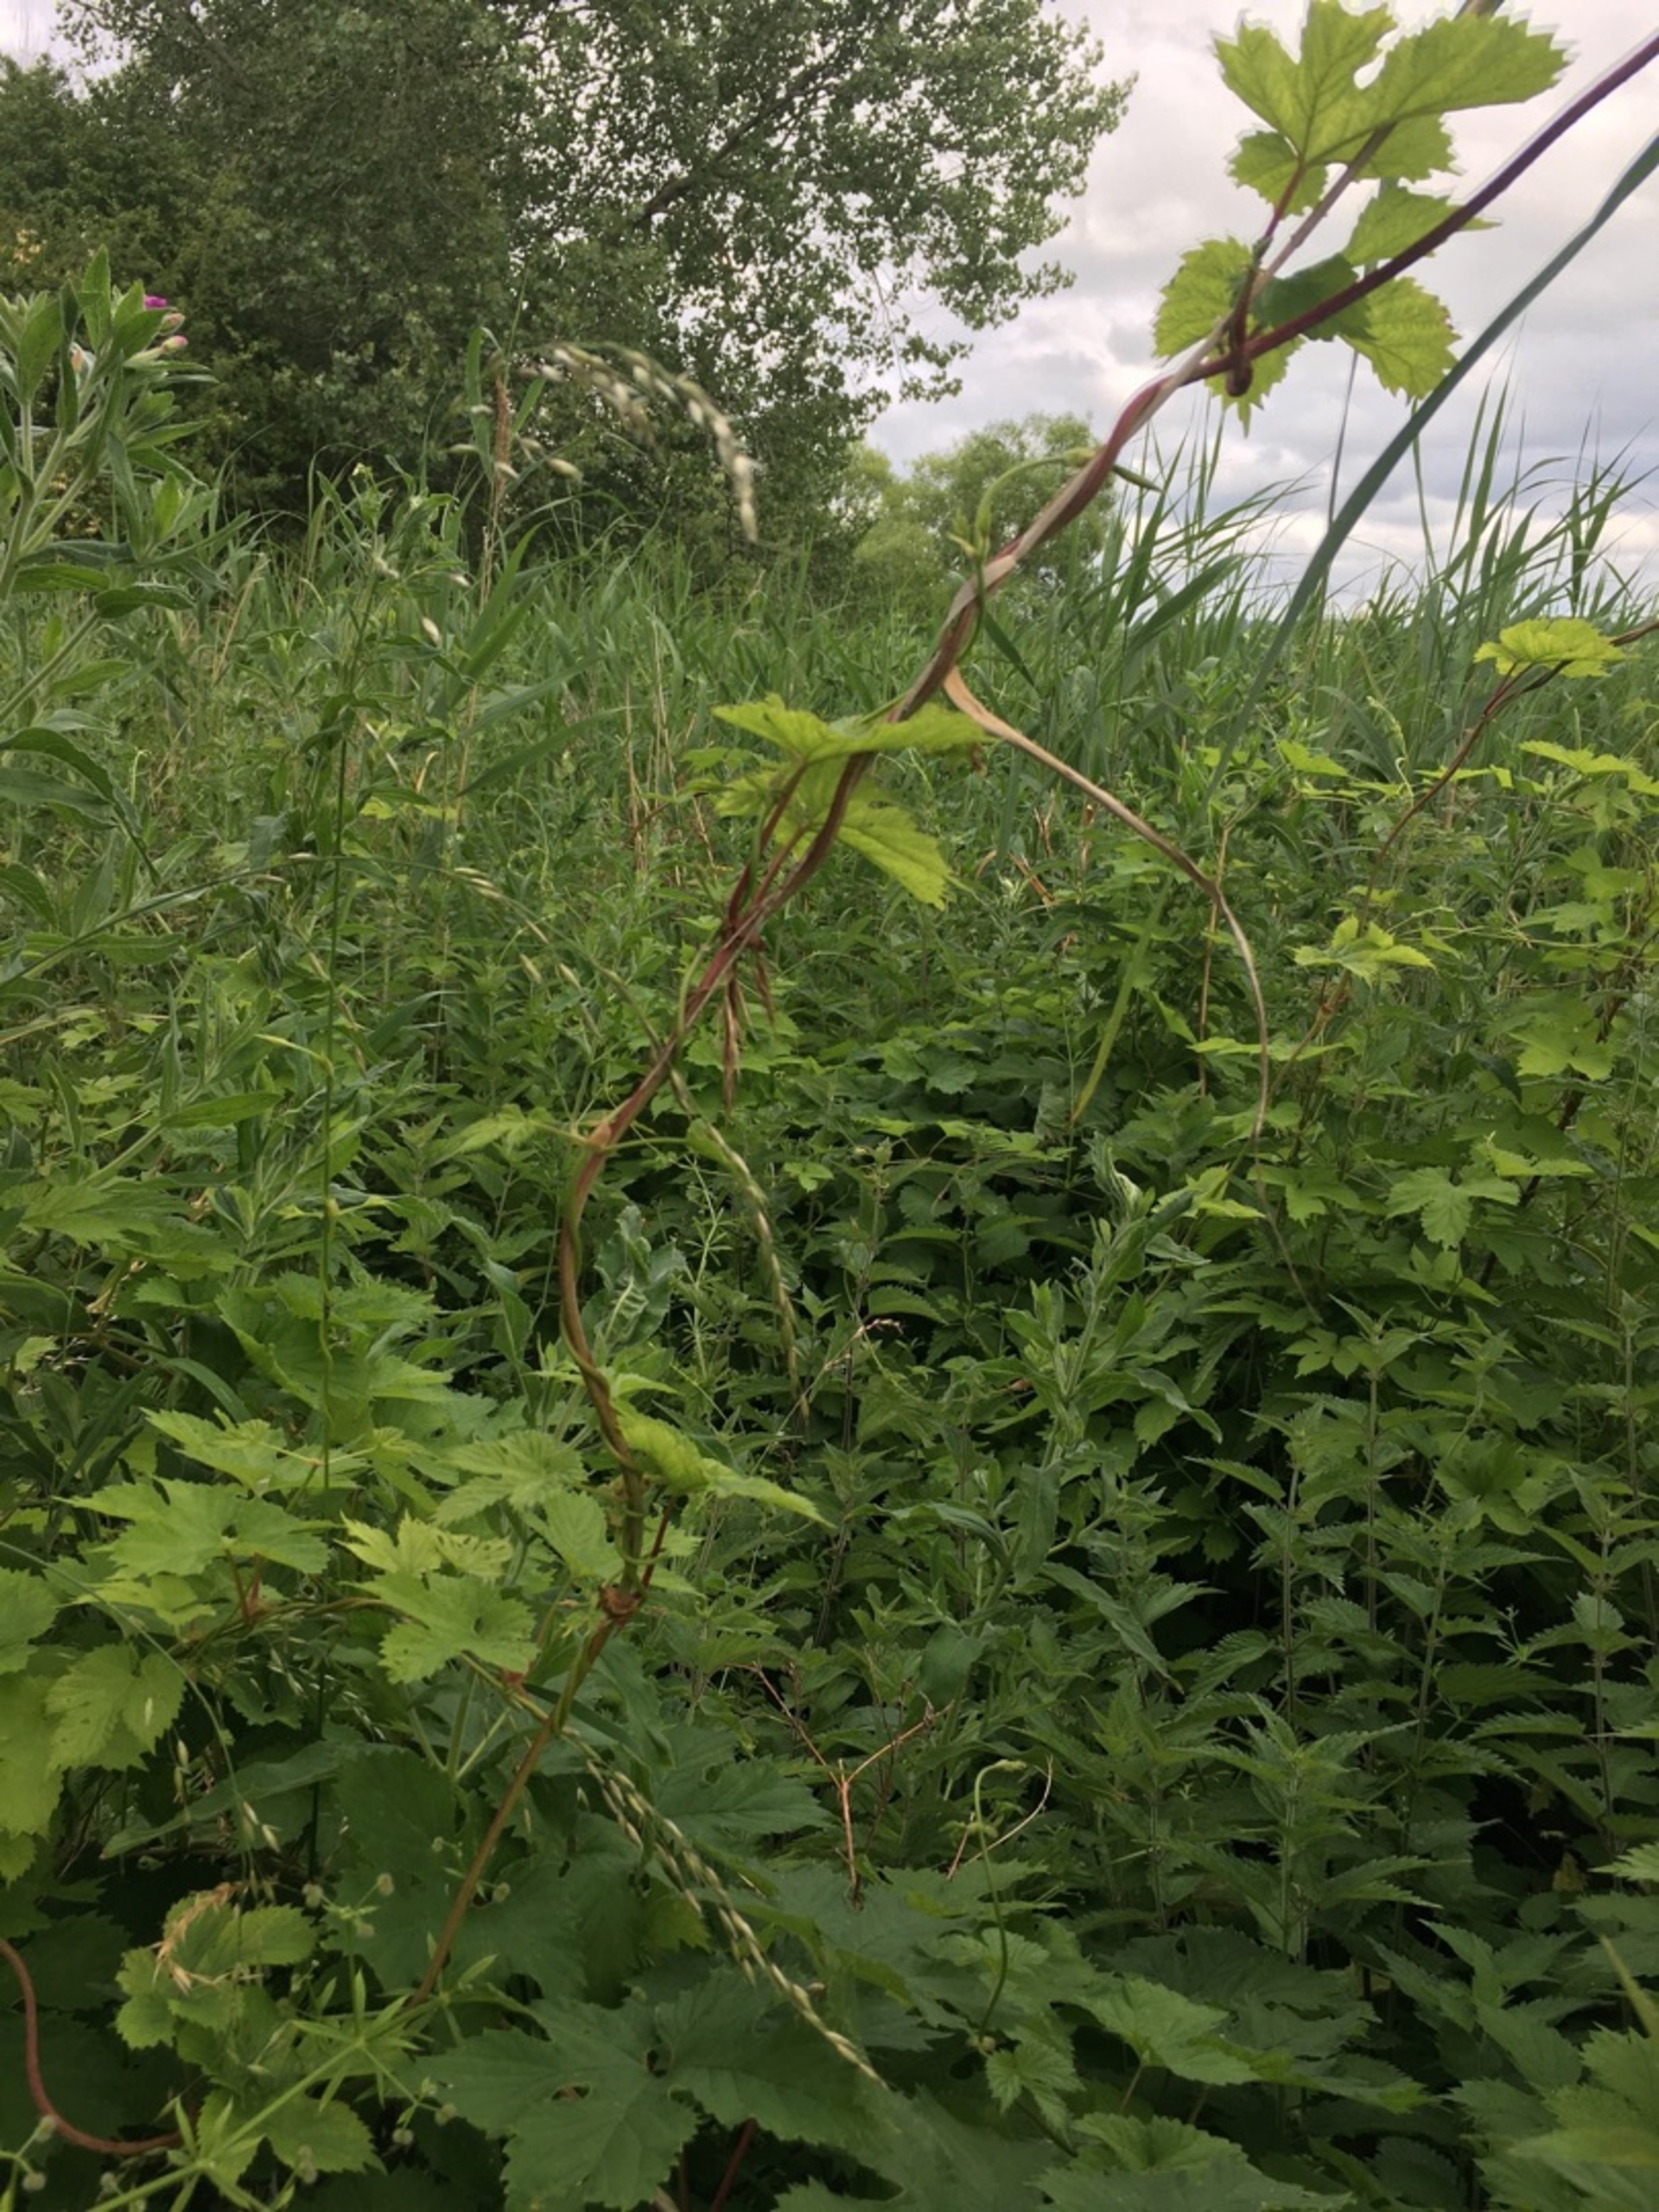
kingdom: Plantae
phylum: Tracheophyta
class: Magnoliopsida
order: Rosales
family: Cannabaceae
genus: Humulus
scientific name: Humulus lupulus
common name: Humle
